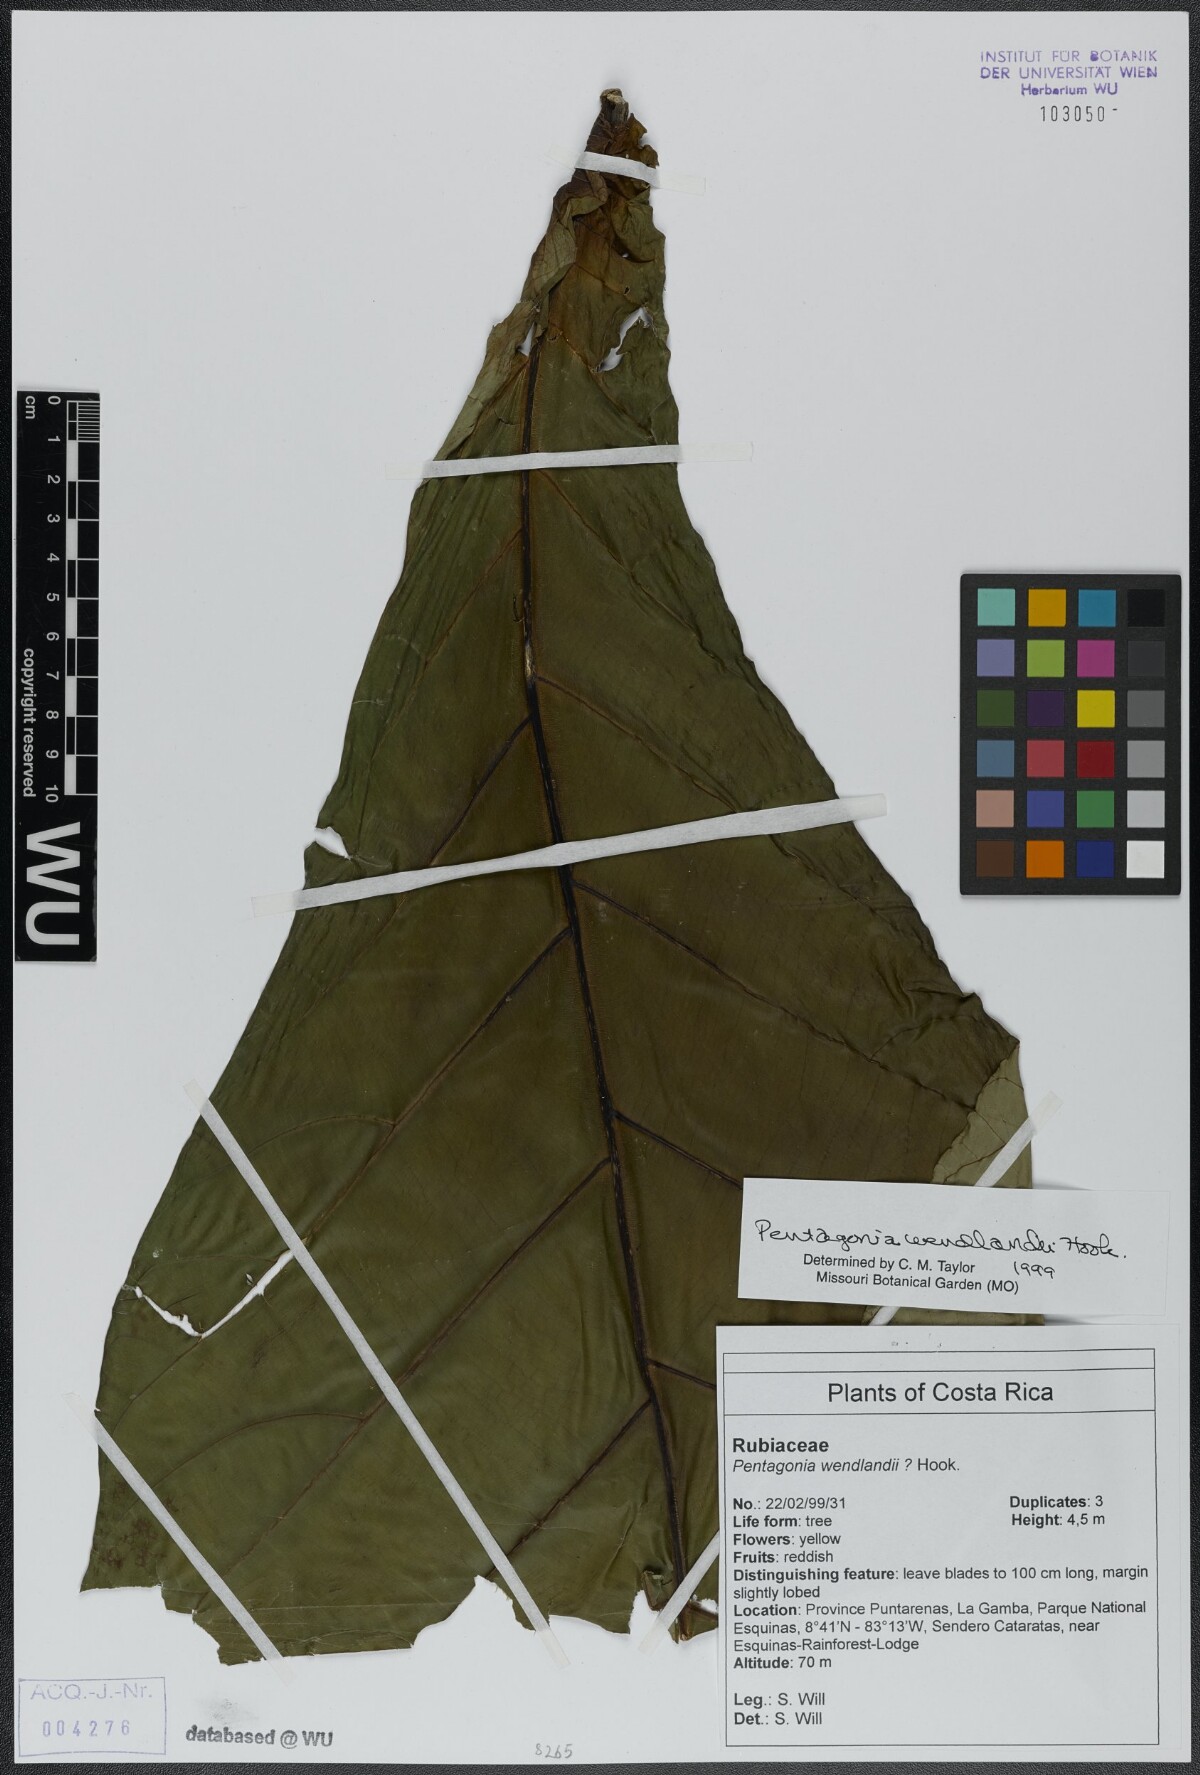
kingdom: Plantae
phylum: Tracheophyta
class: Magnoliopsida
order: Gentianales
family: Rubiaceae
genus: Pentagonia
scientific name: Pentagonia wendlandii
